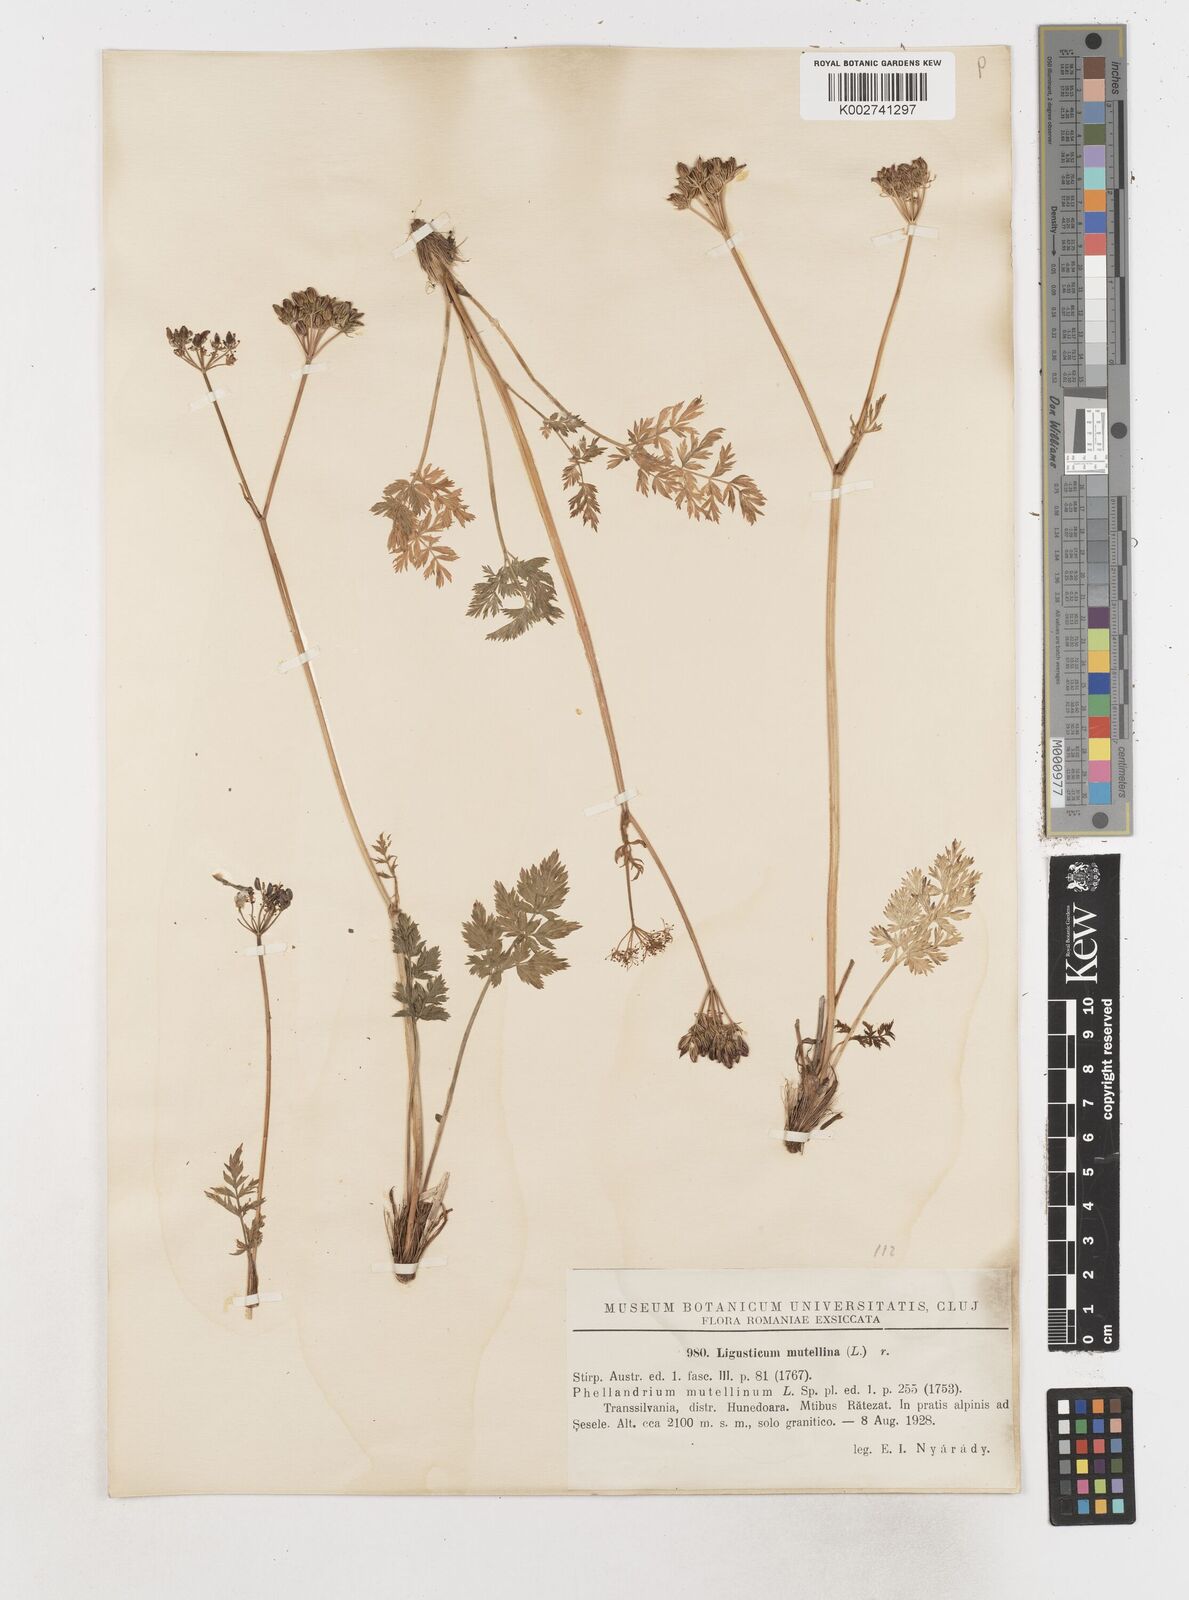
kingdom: Plantae
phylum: Tracheophyta
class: Magnoliopsida
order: Apiales
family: Apiaceae
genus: Ligusticum
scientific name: Ligusticum
